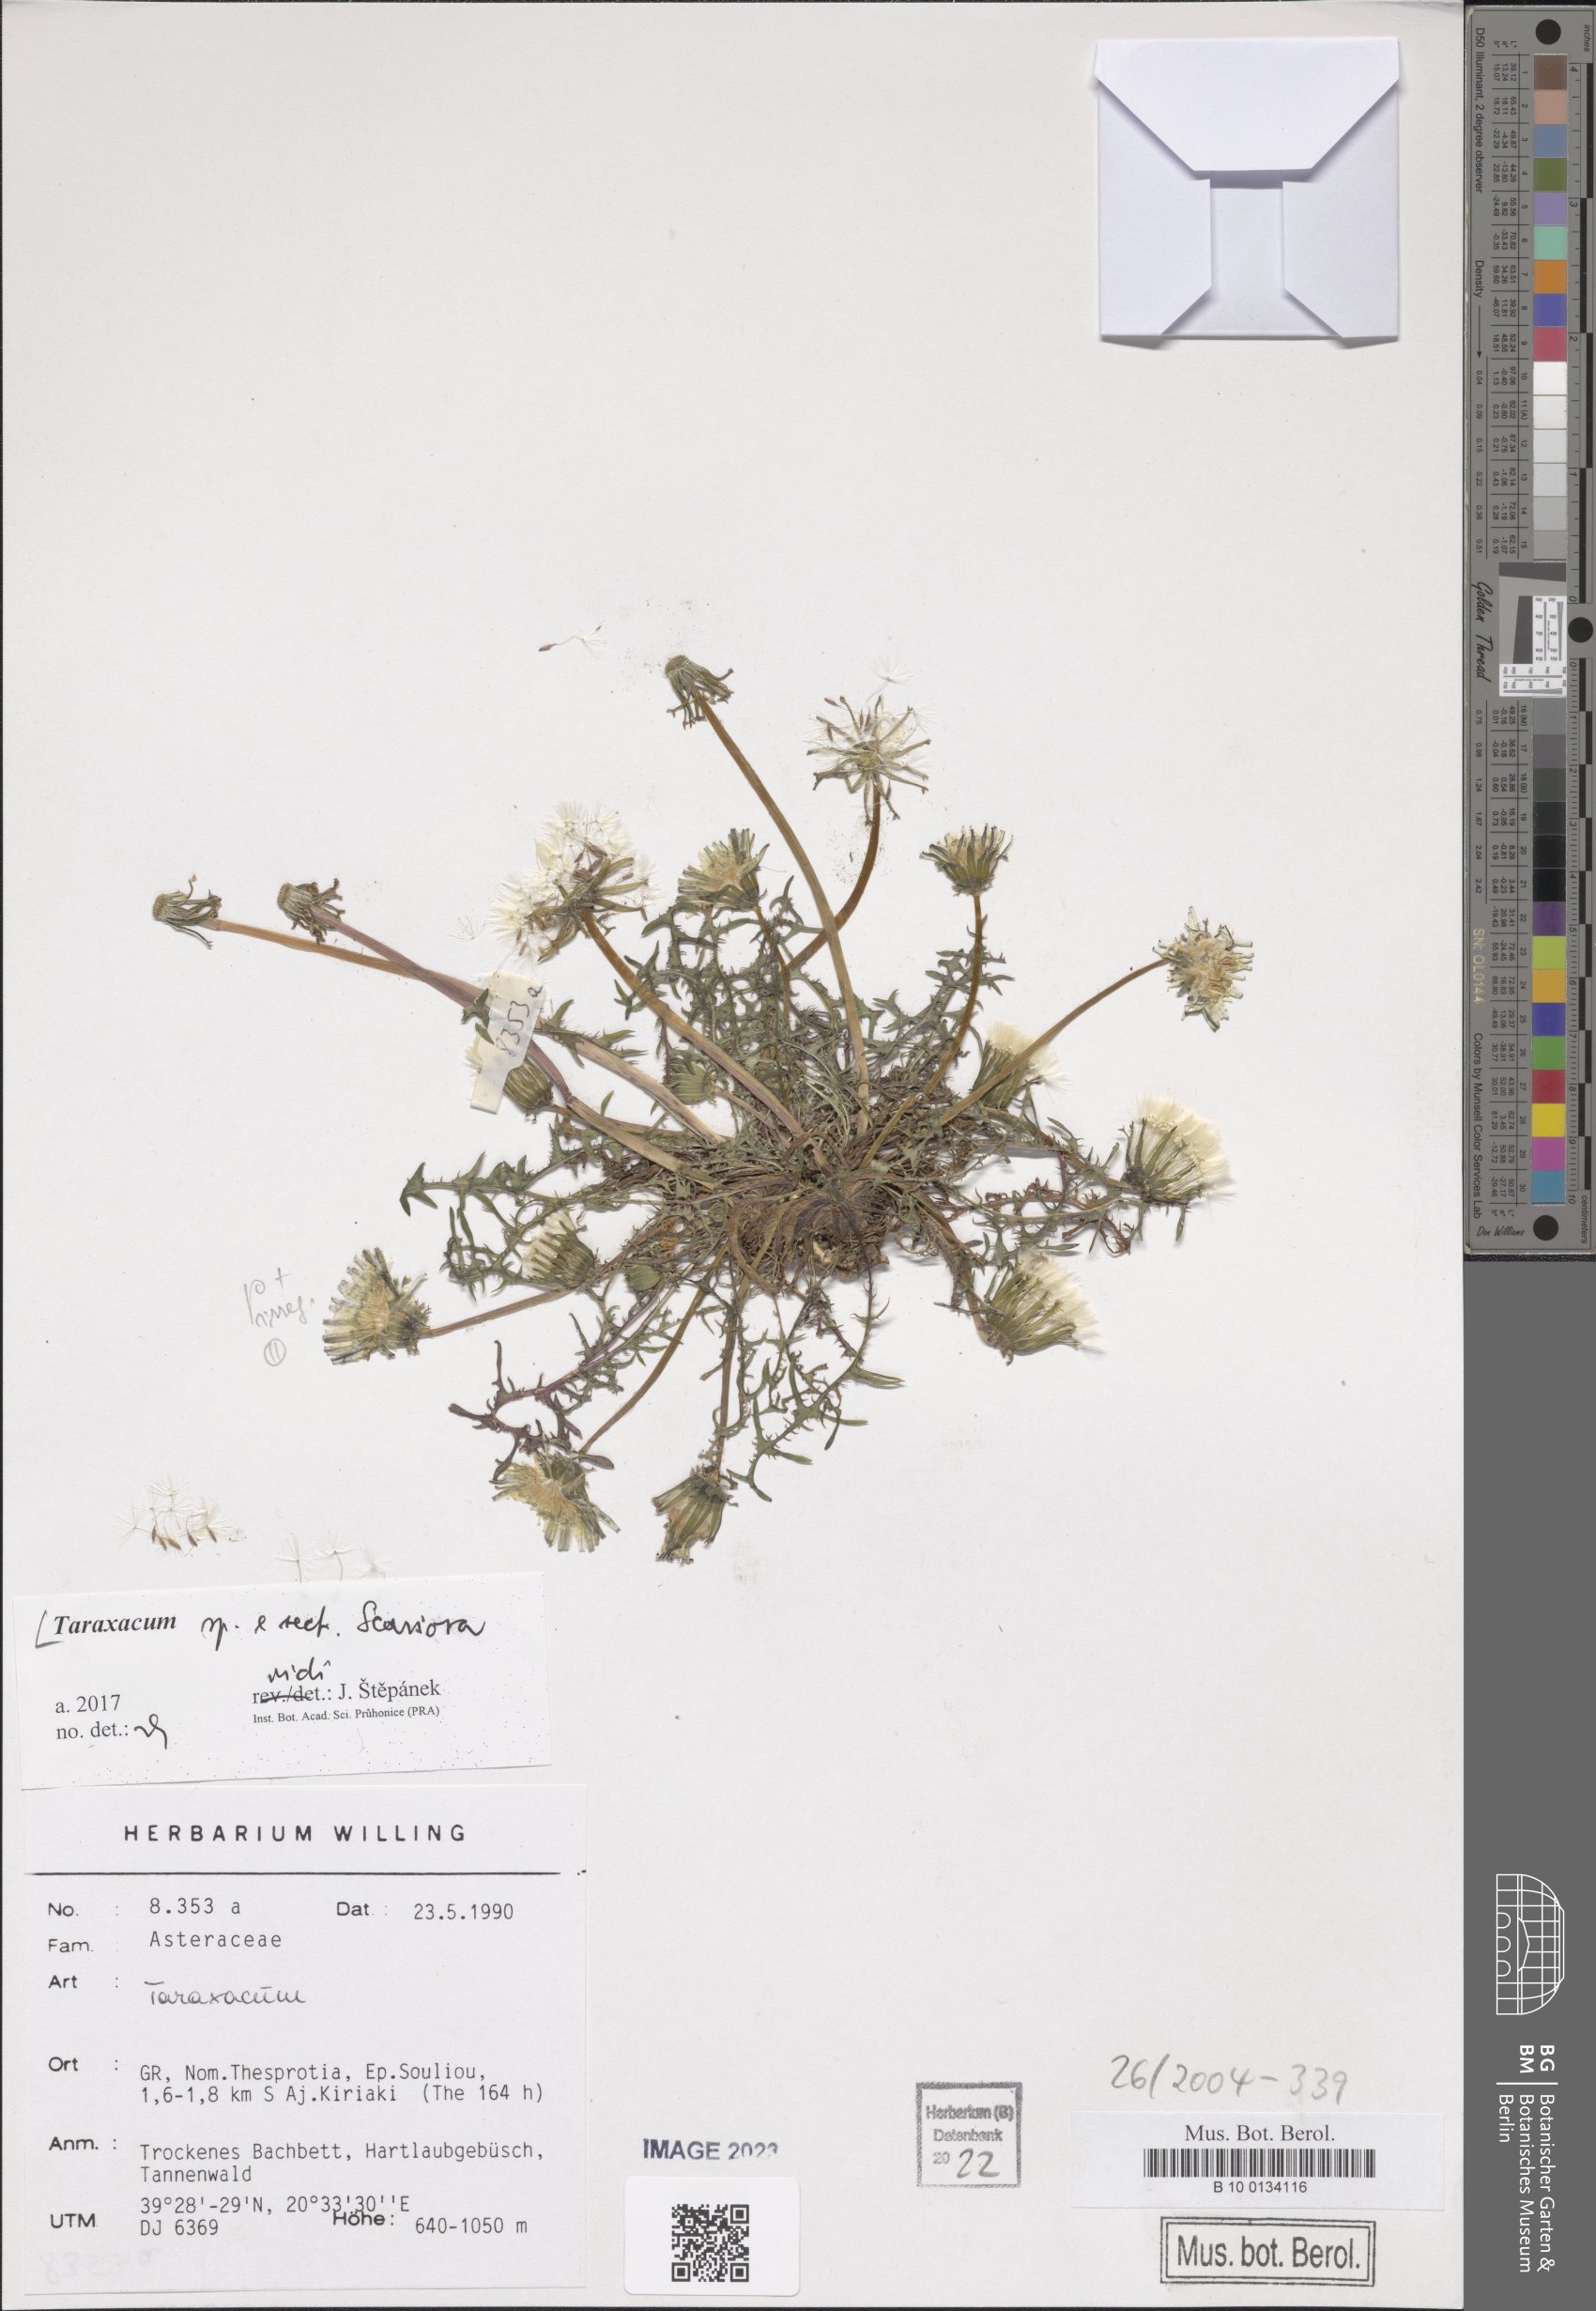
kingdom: Plantae
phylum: Tracheophyta
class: Magnoliopsida
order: Asterales
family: Asteraceae
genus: Taraxacum
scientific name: Taraxacum
